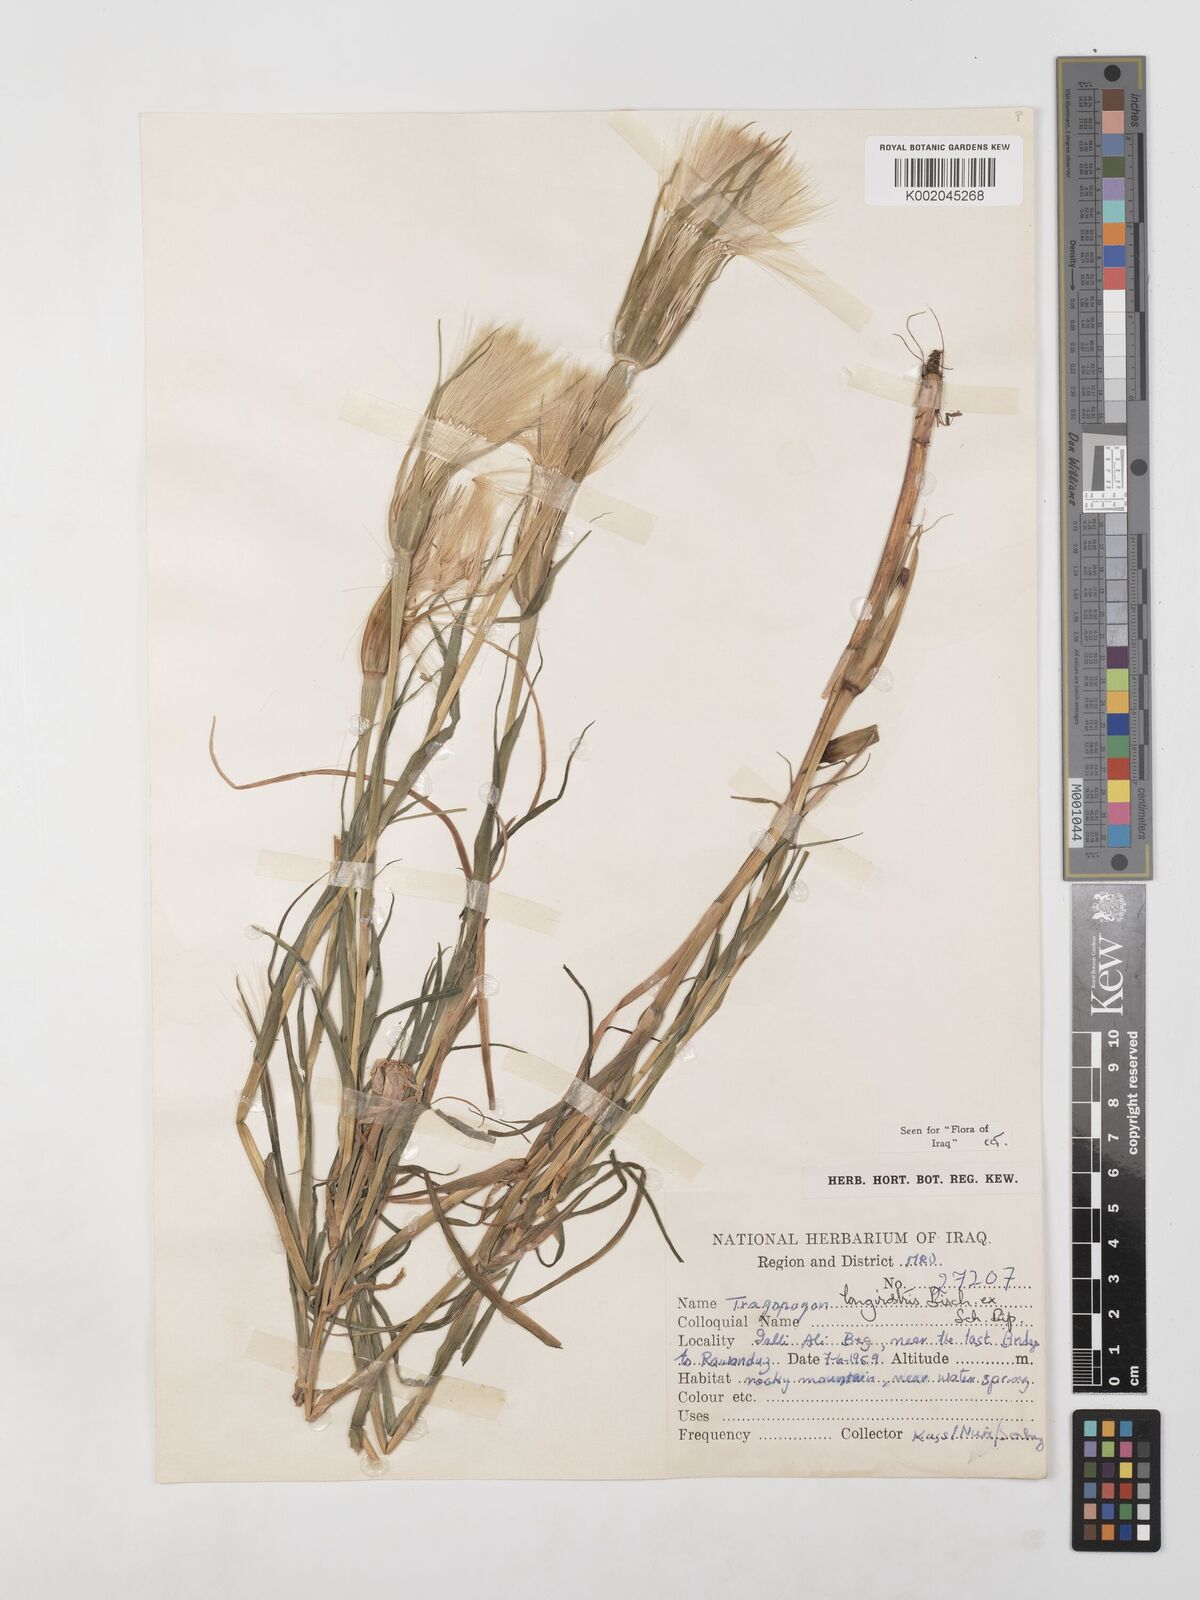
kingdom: Plantae
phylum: Tracheophyta
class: Magnoliopsida
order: Asterales
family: Asteraceae
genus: Tragopogon
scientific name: Tragopogon coelesyriacus
